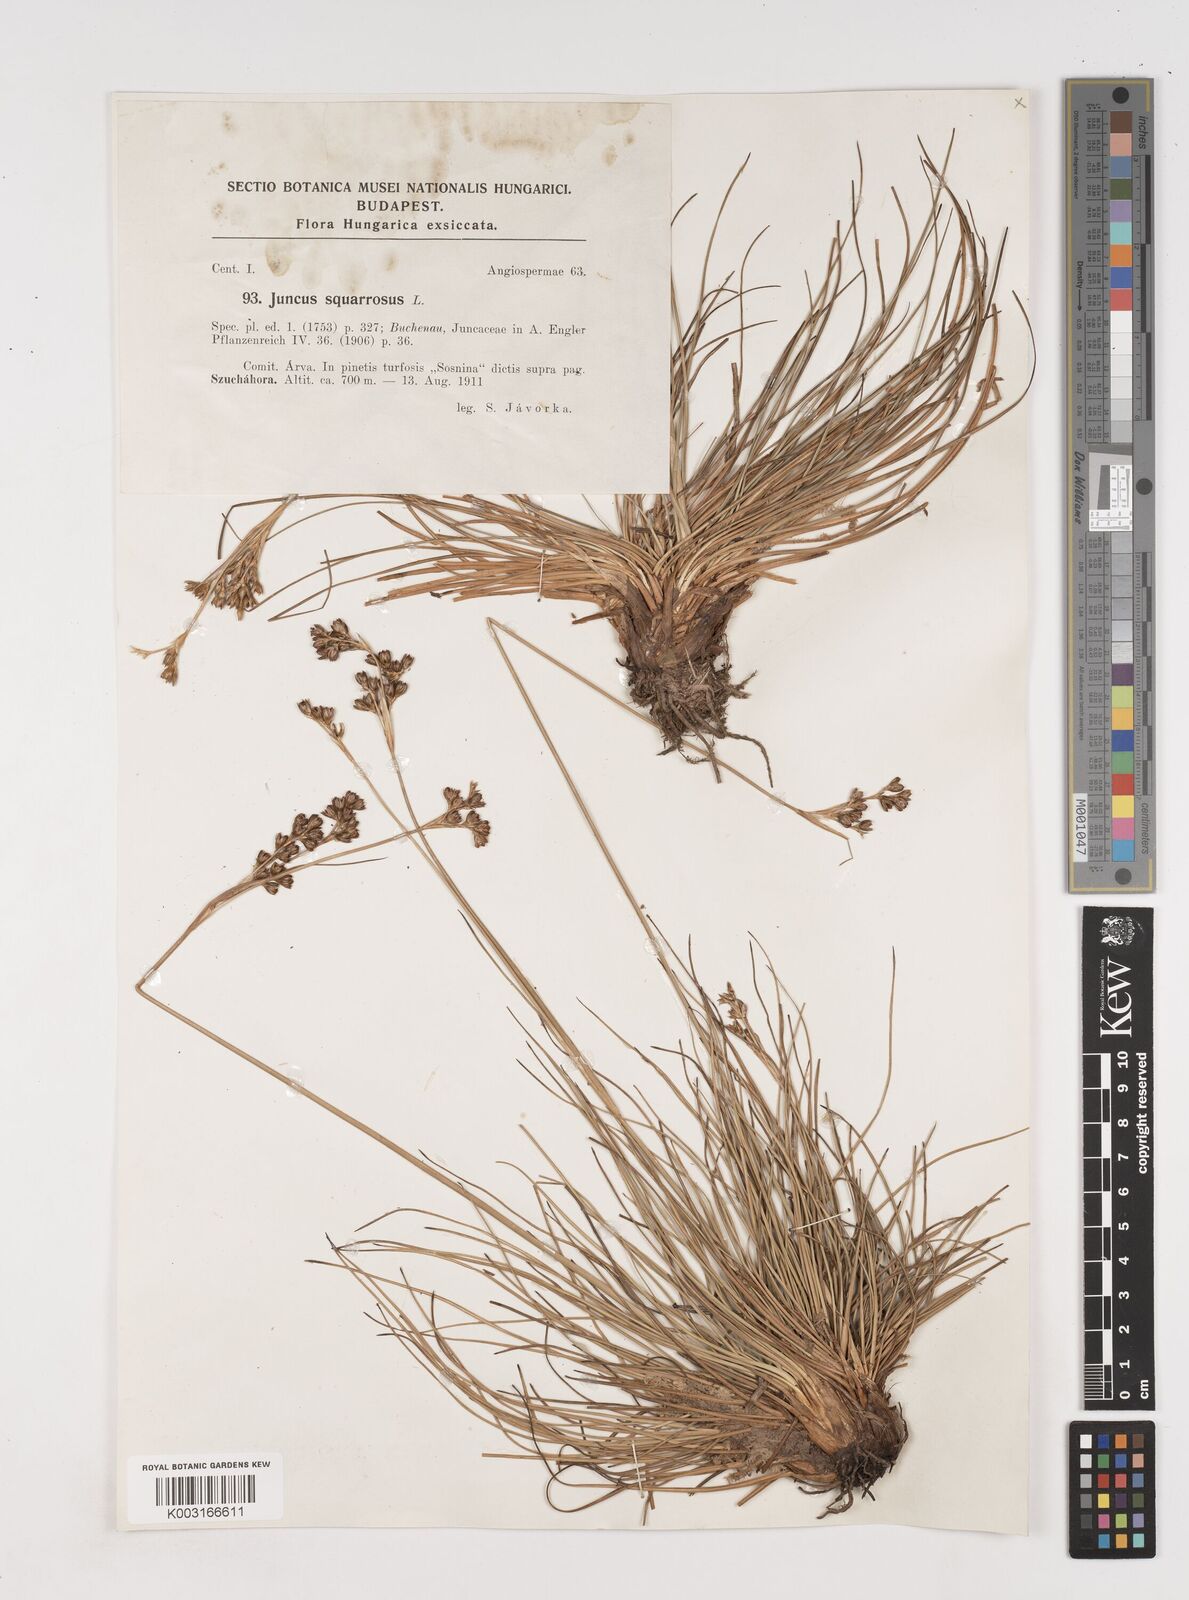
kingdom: Plantae
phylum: Tracheophyta
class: Liliopsida
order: Poales
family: Juncaceae
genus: Juncus
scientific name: Juncus squarrosus
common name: Heath rush
